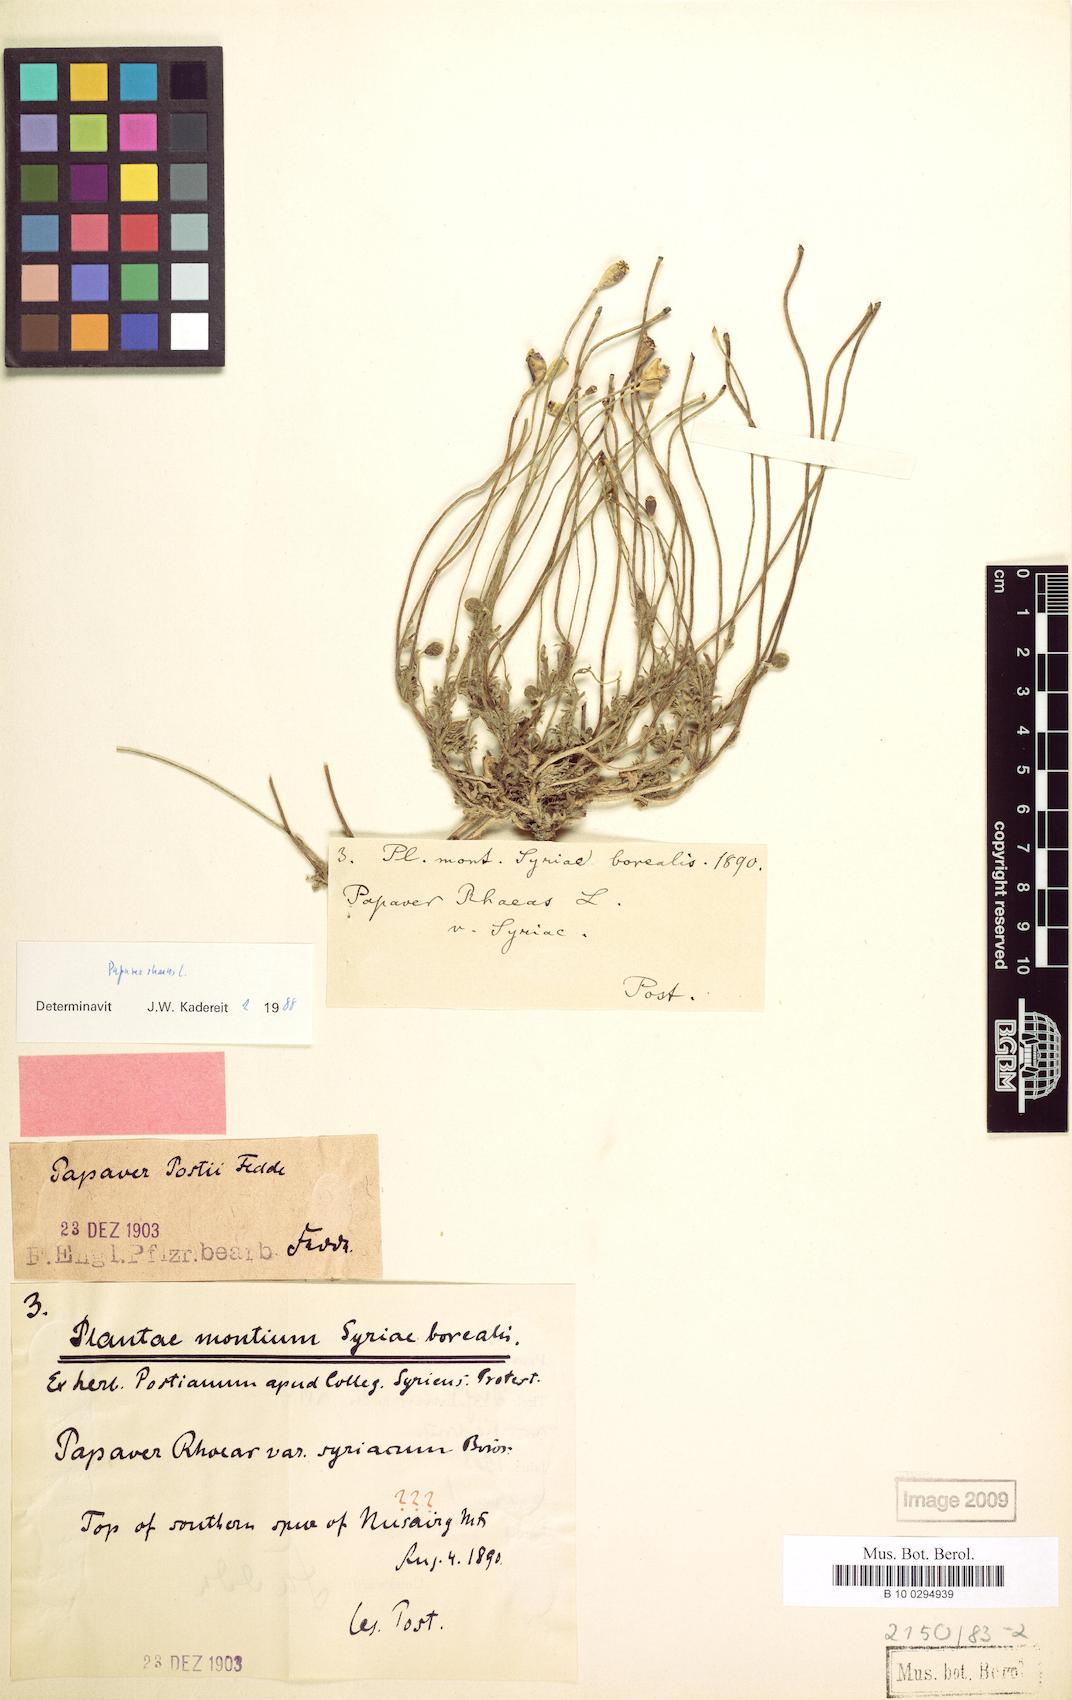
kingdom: Plantae
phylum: Tracheophyta
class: Magnoliopsida
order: Ranunculales
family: Papaveraceae
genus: Papaver
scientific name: Papaver rhoeas
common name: Corn poppy
